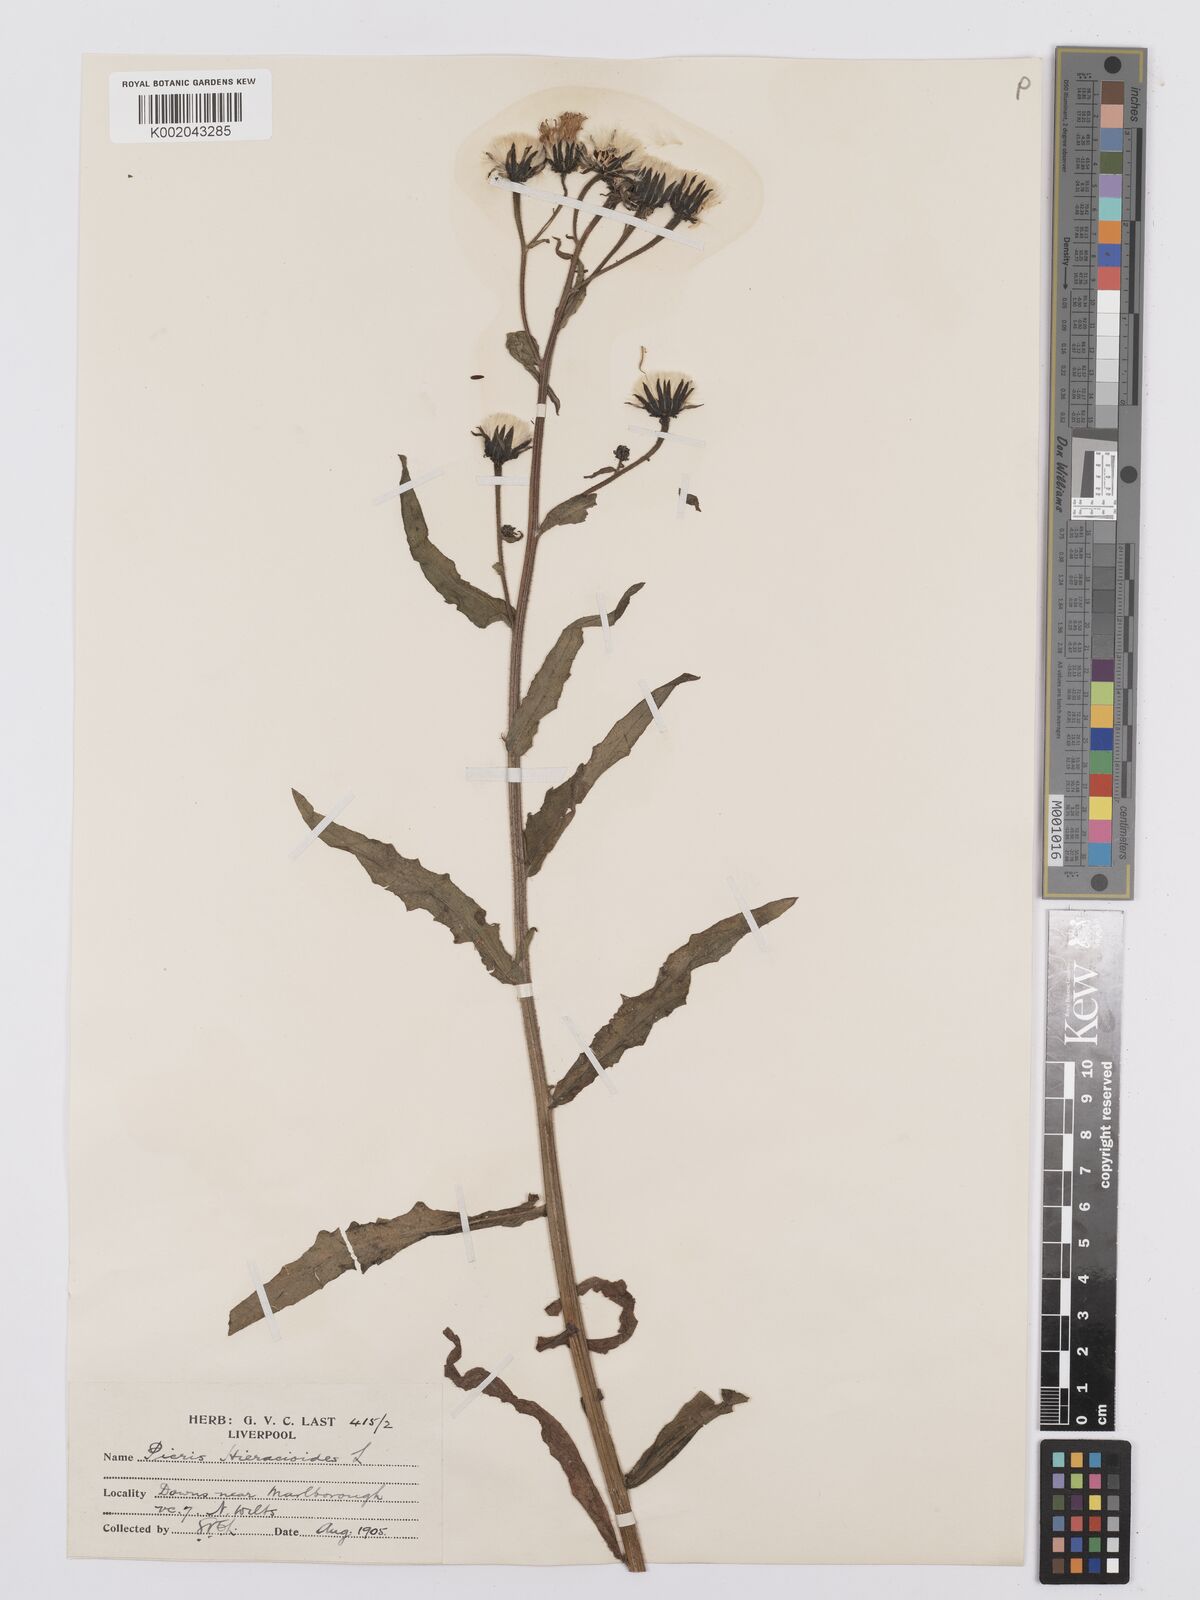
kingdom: Plantae
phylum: Tracheophyta
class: Magnoliopsida
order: Asterales
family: Asteraceae
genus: Picris
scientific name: Picris hieracioides
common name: Hawkweed oxtongue
